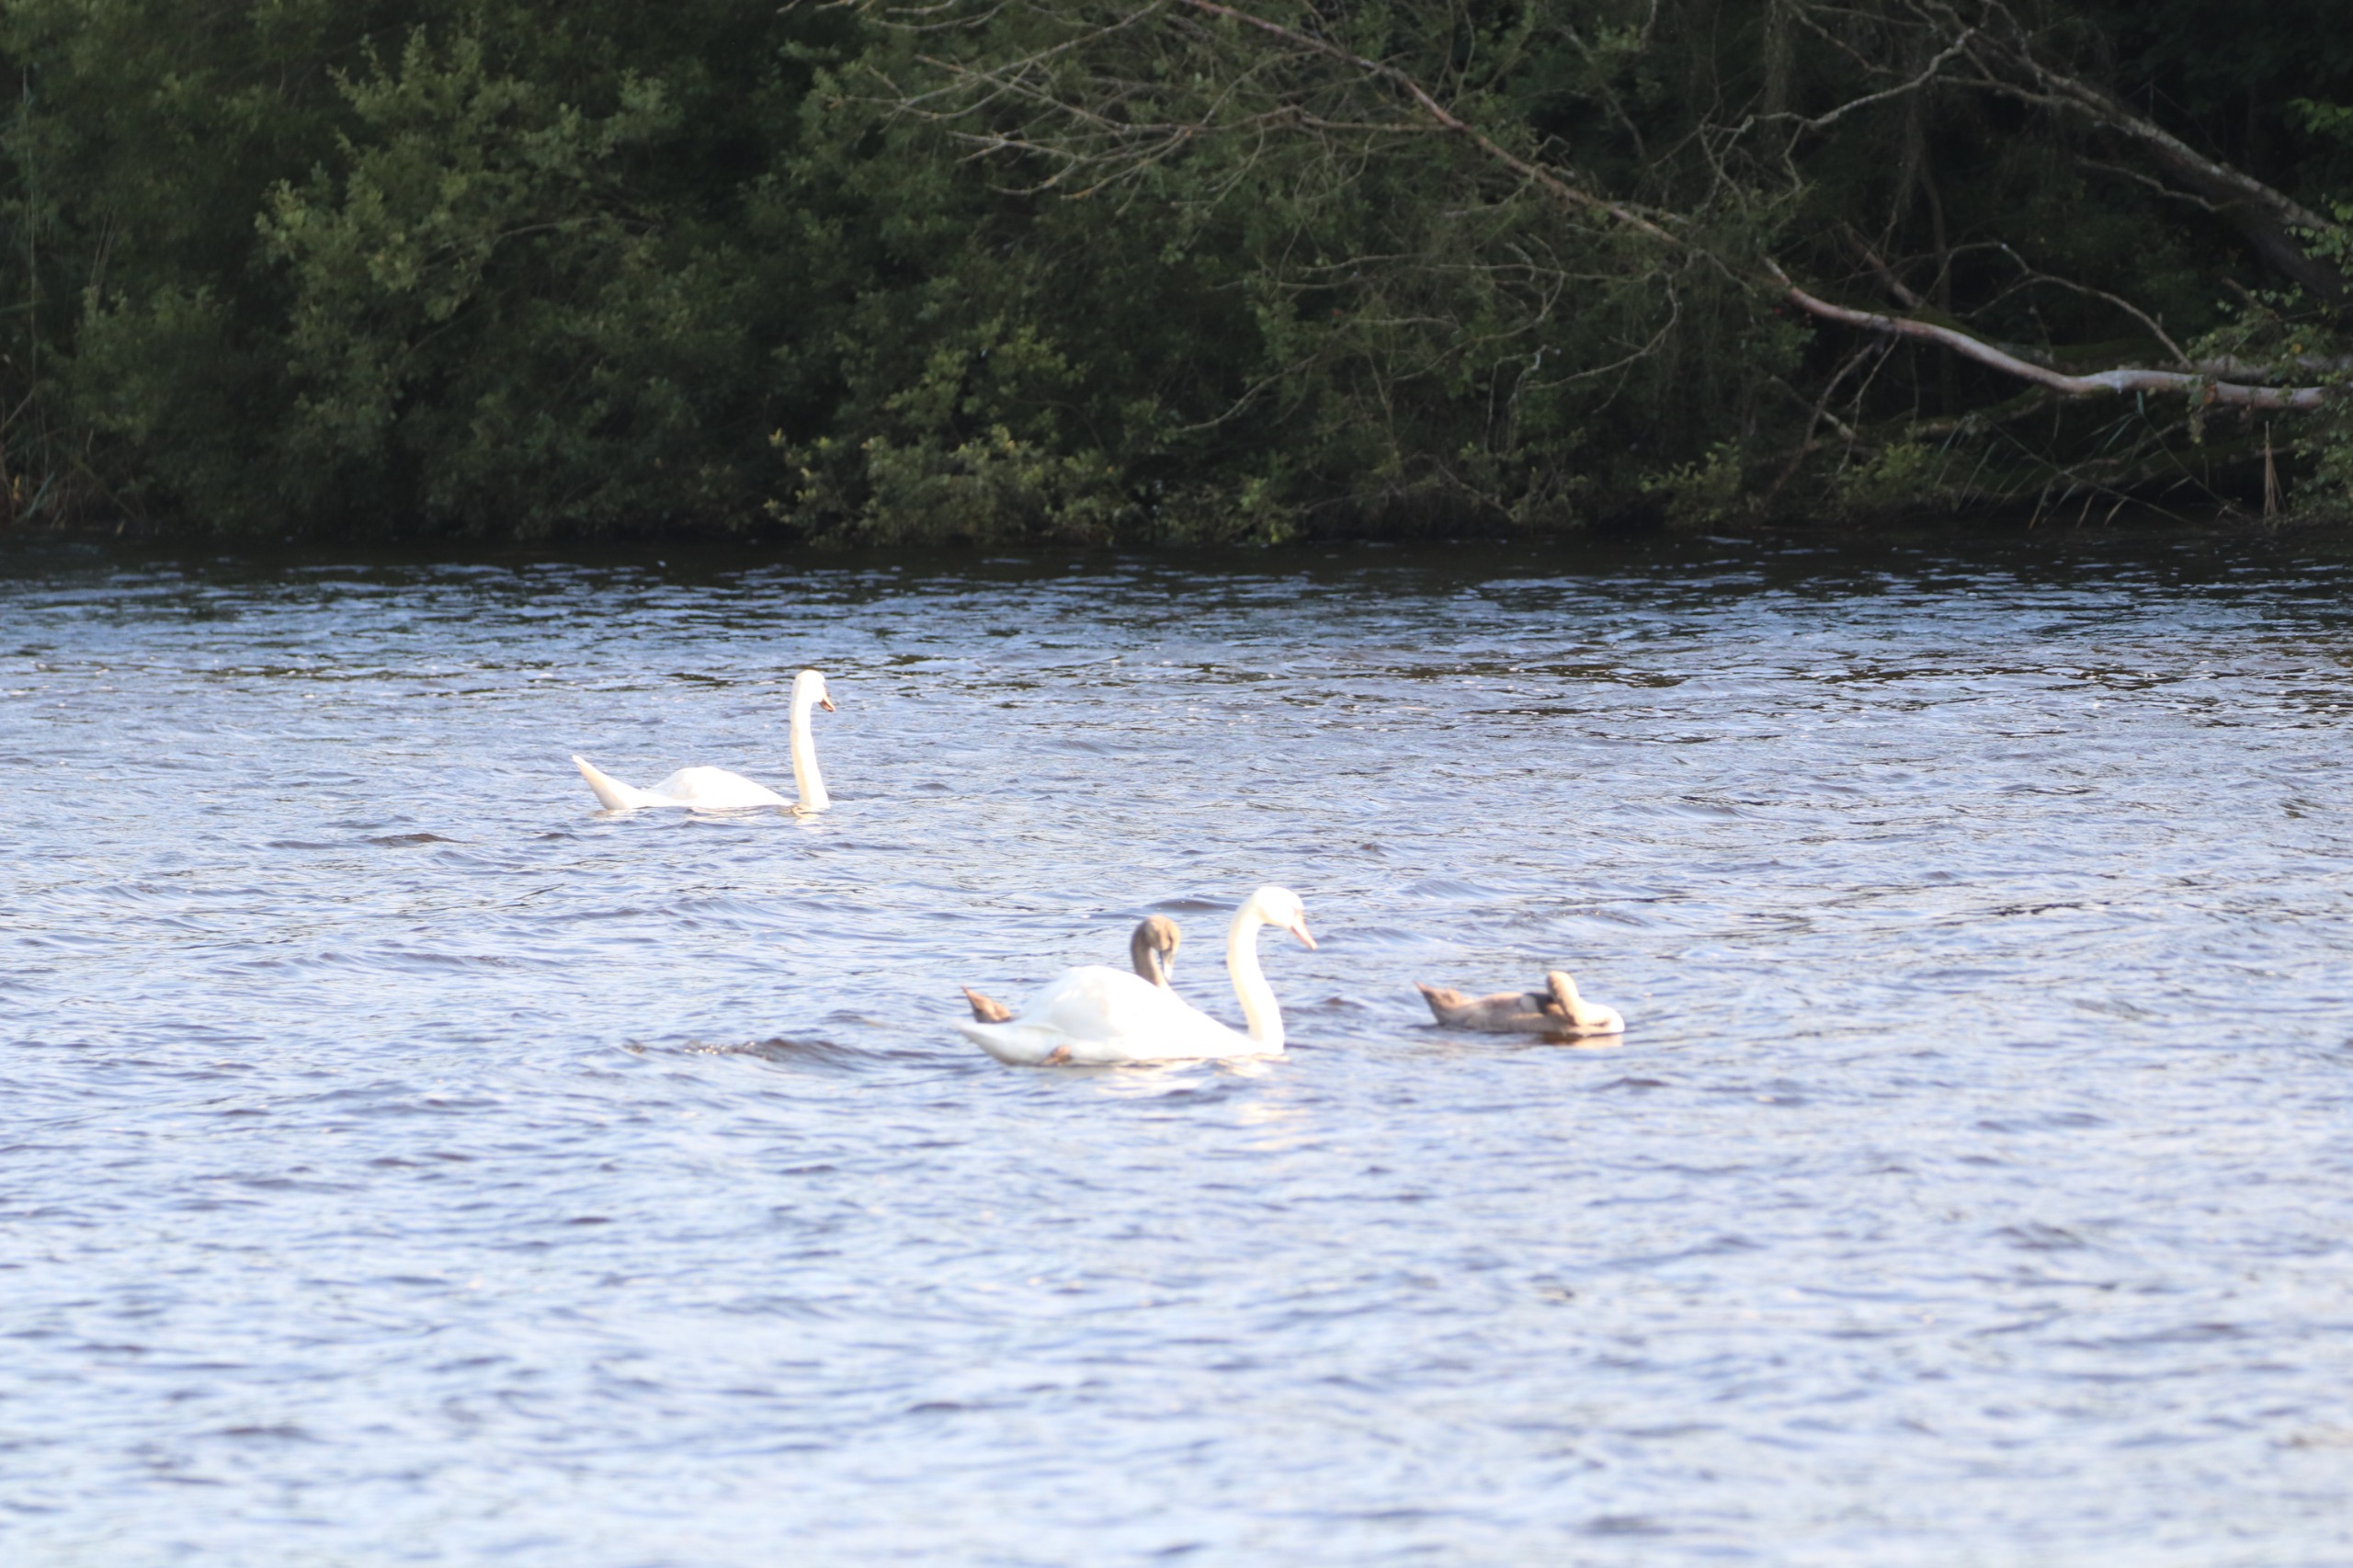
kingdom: Animalia
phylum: Chordata
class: Aves
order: Anseriformes
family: Anatidae
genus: Cygnus
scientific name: Cygnus olor
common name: Knopsvane
